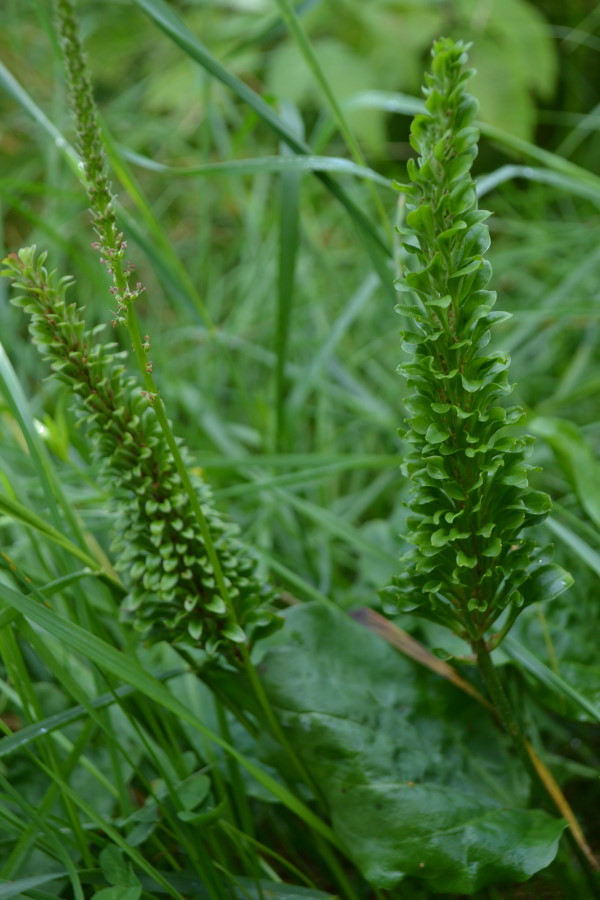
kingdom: Plantae
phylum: Tracheophyta
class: Magnoliopsida
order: Lamiales
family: Plantaginaceae
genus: Plantago
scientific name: Plantago major
